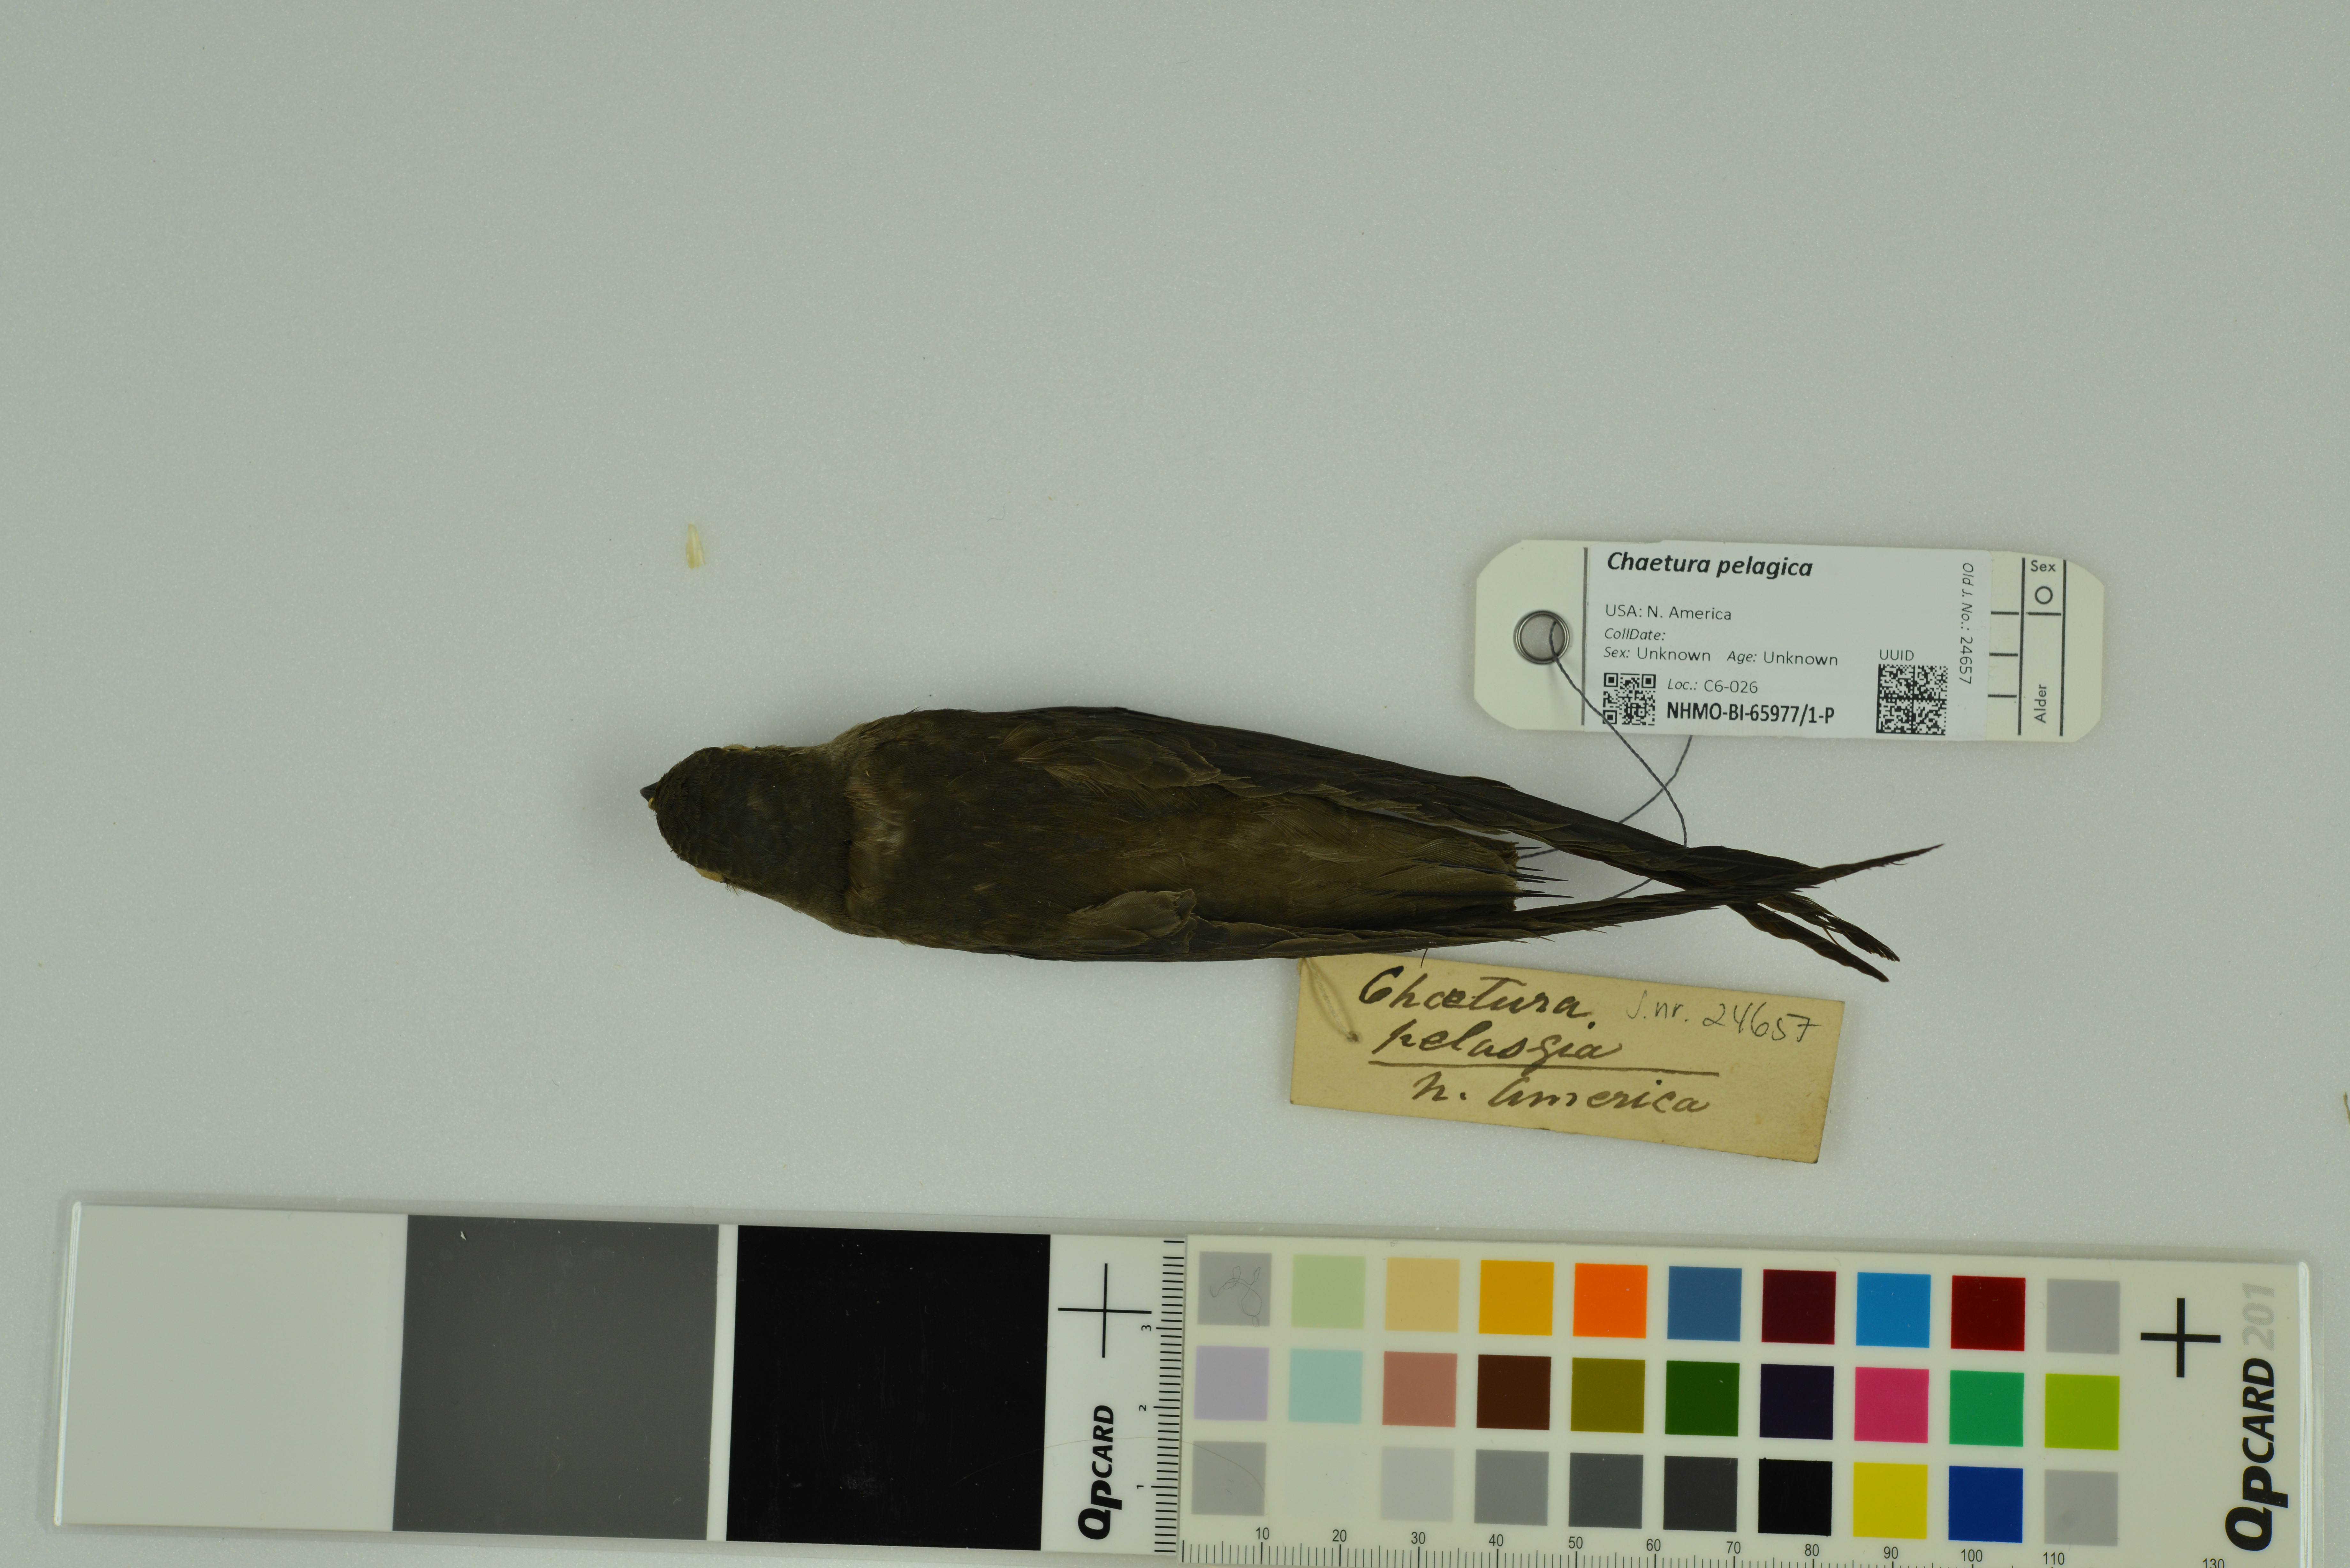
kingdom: Animalia
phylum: Chordata
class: Aves
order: Apodiformes
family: Apodidae
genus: Chaetura
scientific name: Chaetura pelagica
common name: Chimney swift
